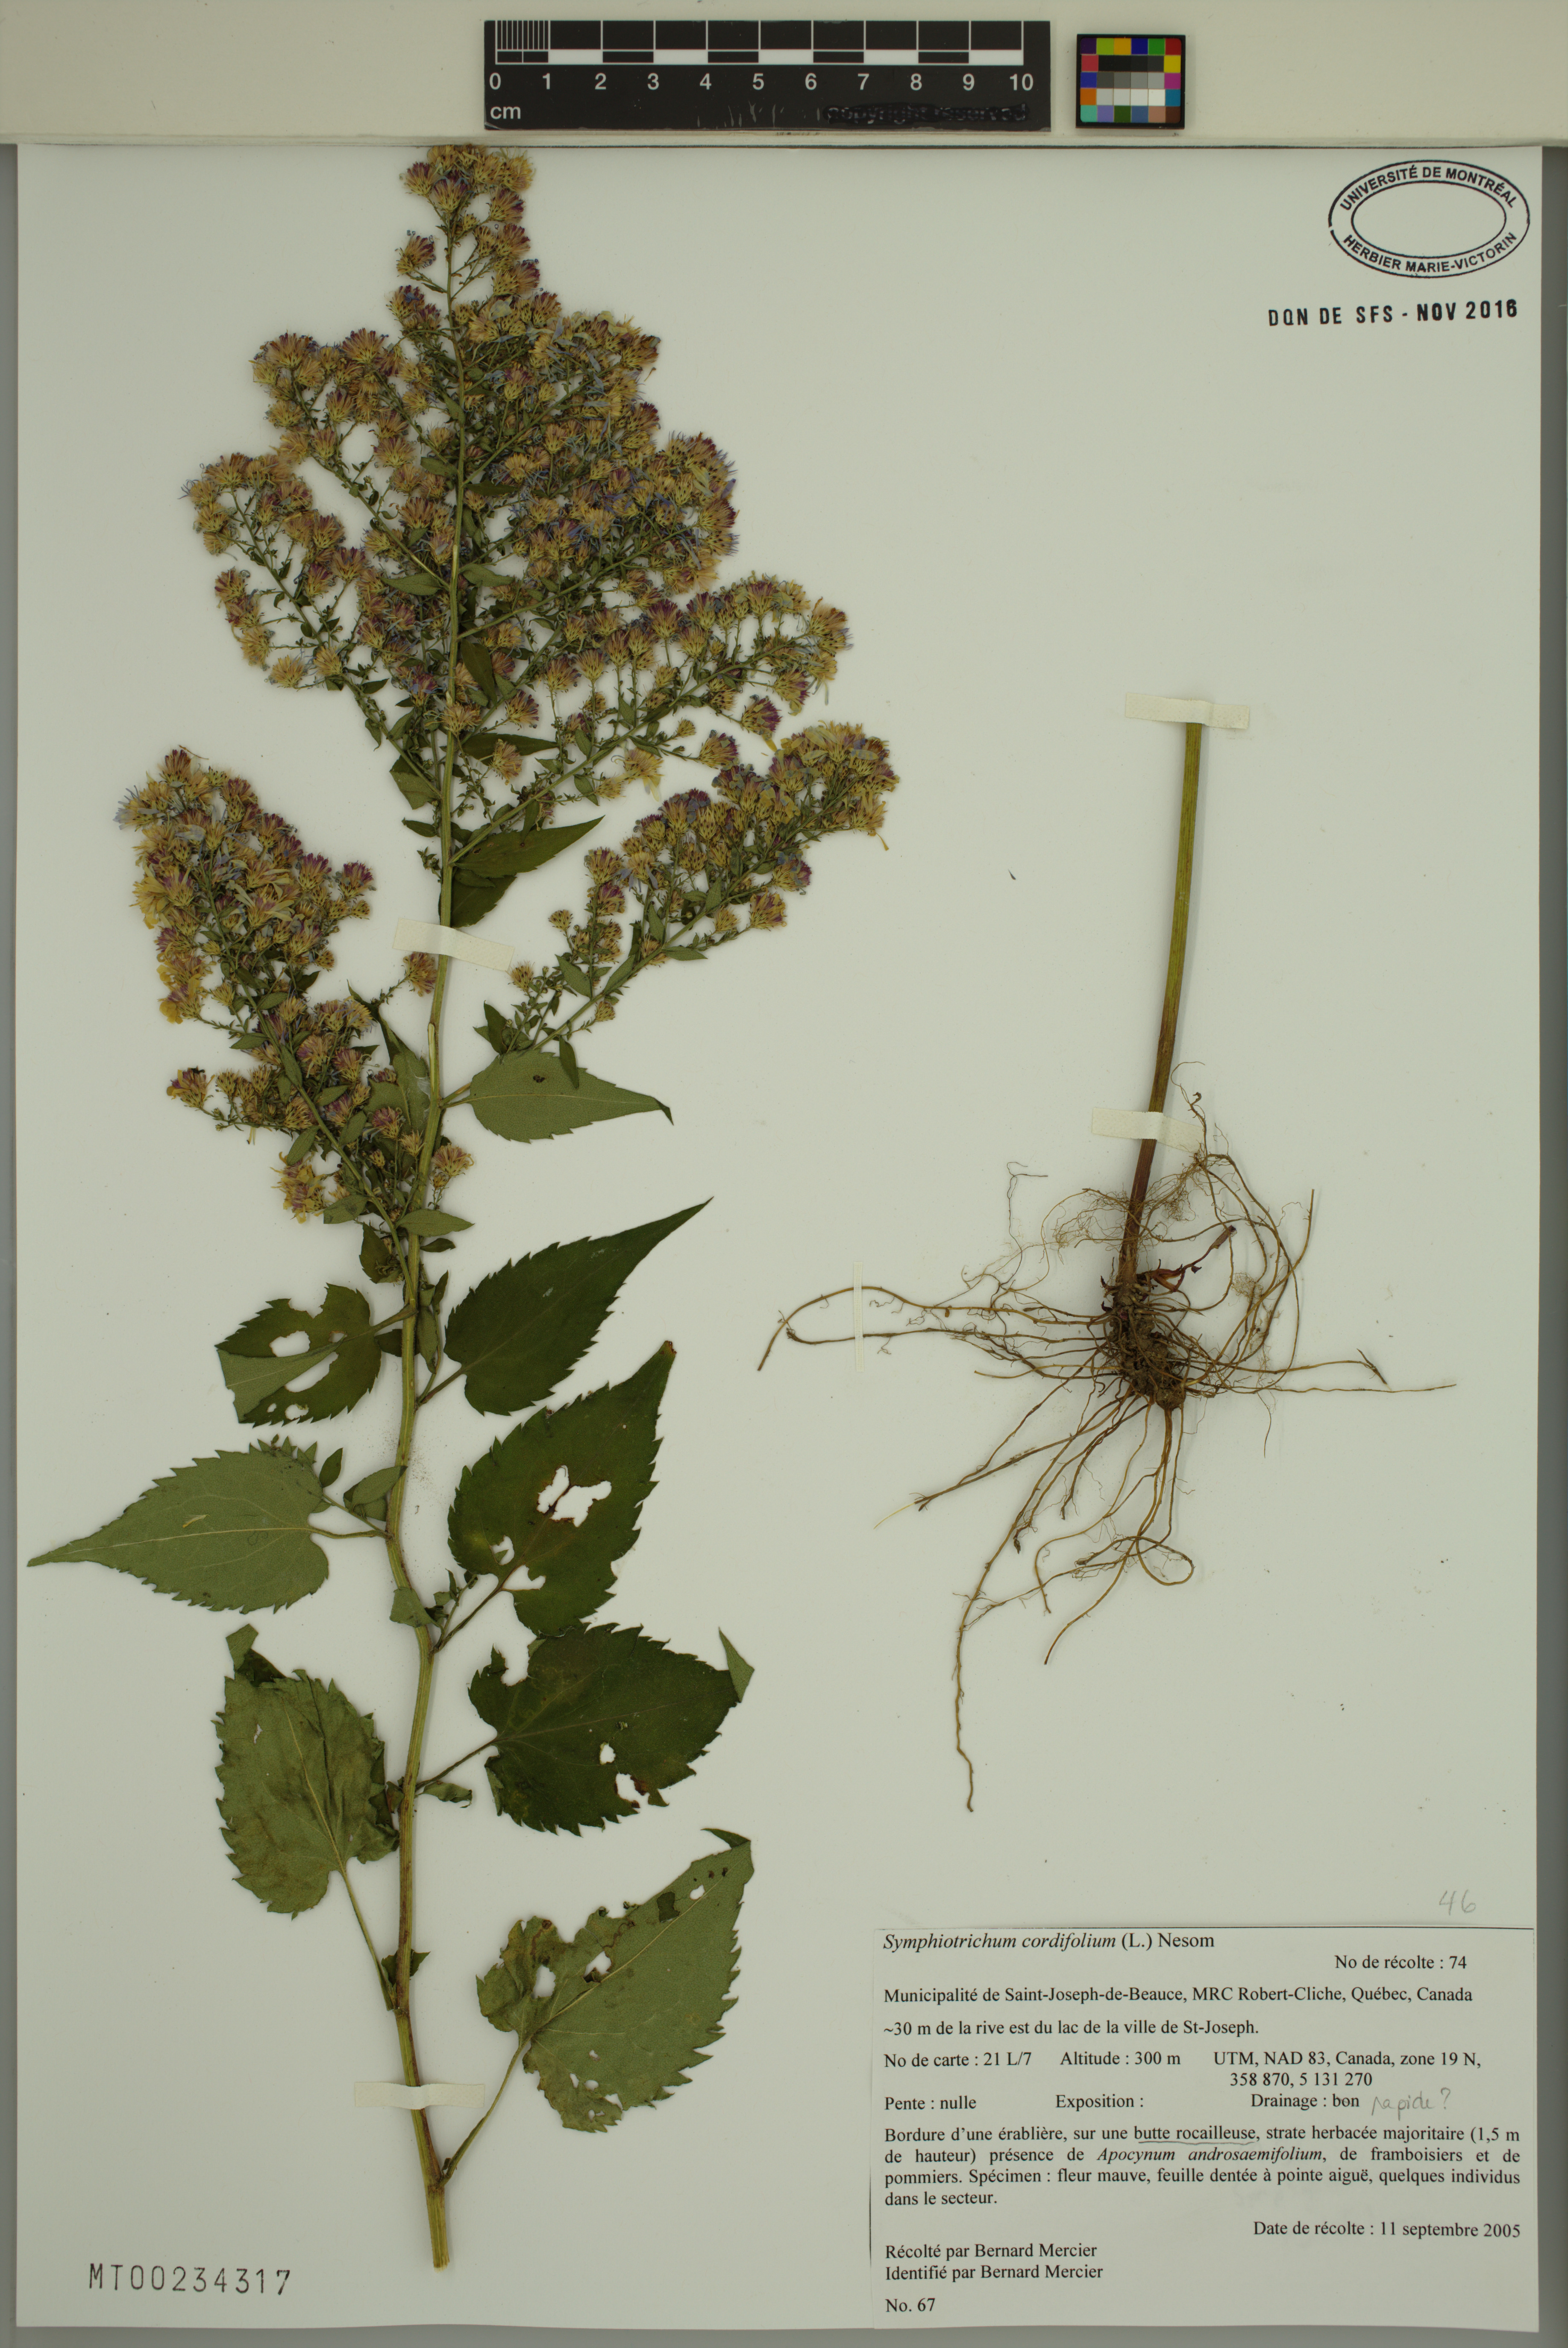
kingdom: Plantae
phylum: Tracheophyta
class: Magnoliopsida
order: Asterales
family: Asteraceae
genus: Symphyotrichum
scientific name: Symphyotrichum cordifolium
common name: Beeweed
